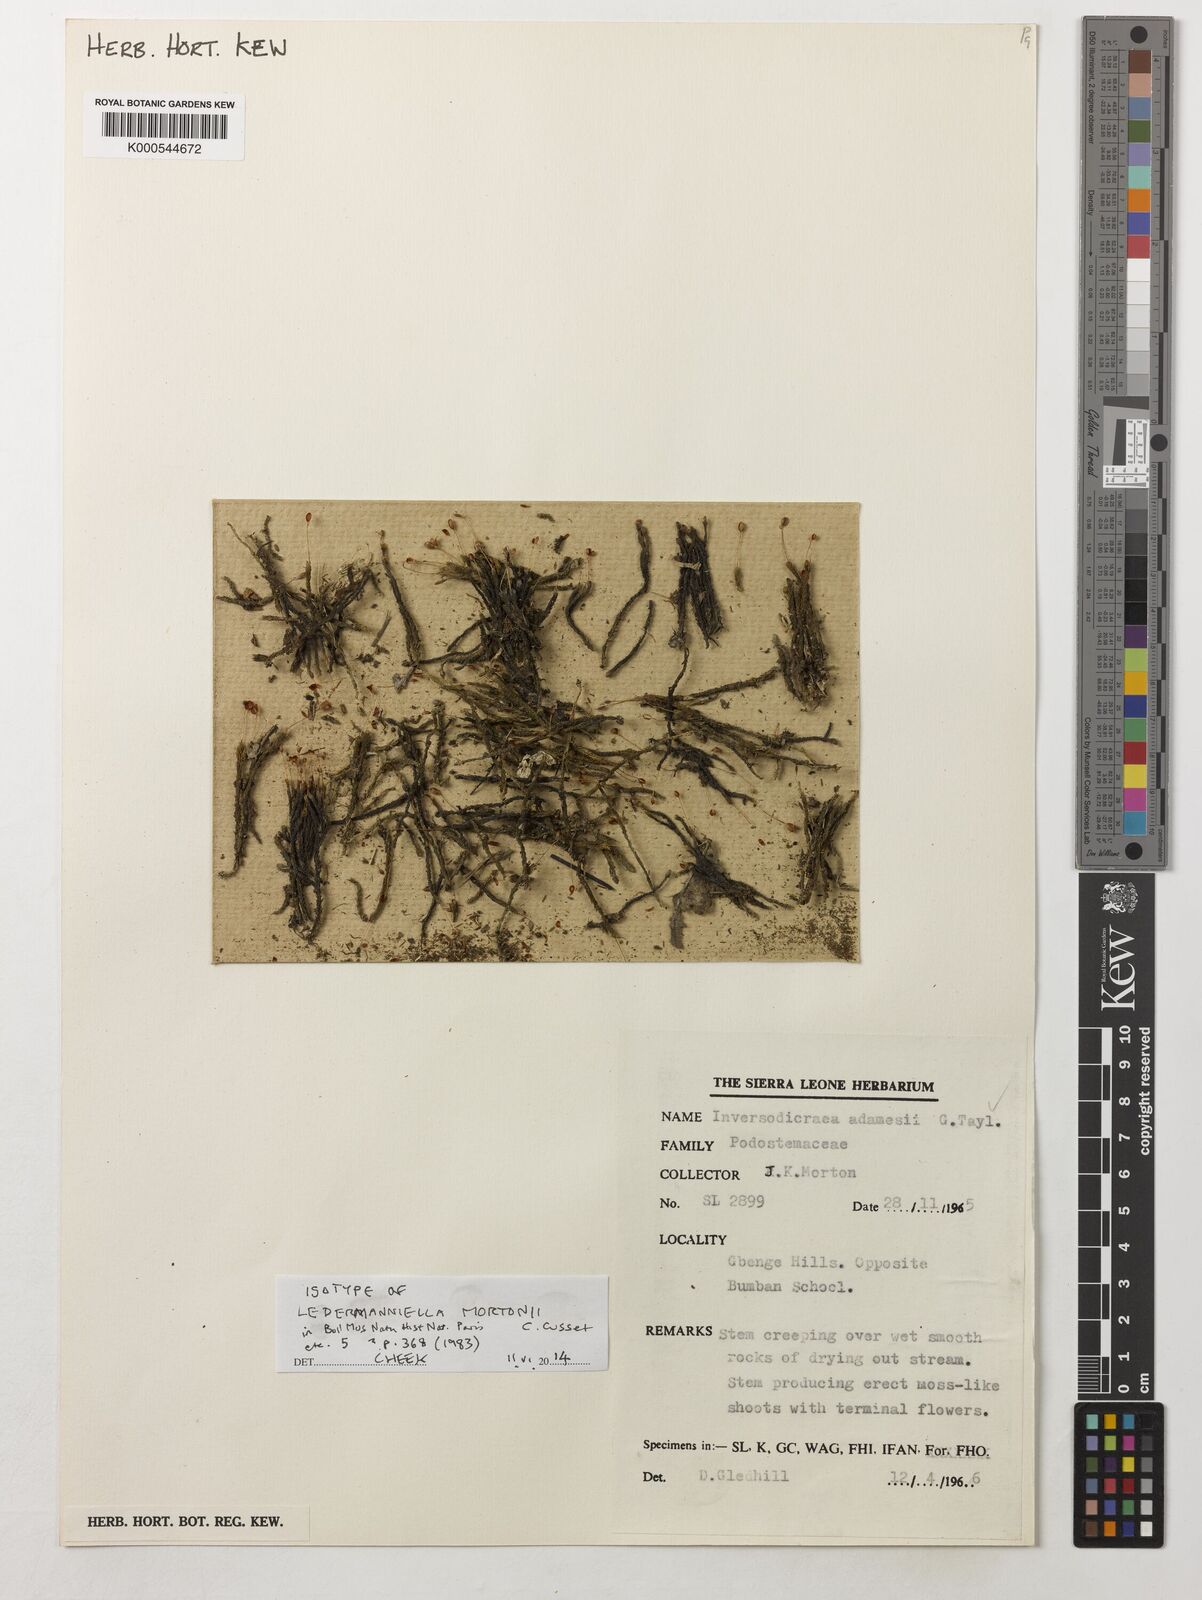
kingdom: Plantae
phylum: Tracheophyta
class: Magnoliopsida
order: Malpighiales
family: Podostemaceae
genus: Inversodicraea
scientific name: Inversodicraea mortonii
